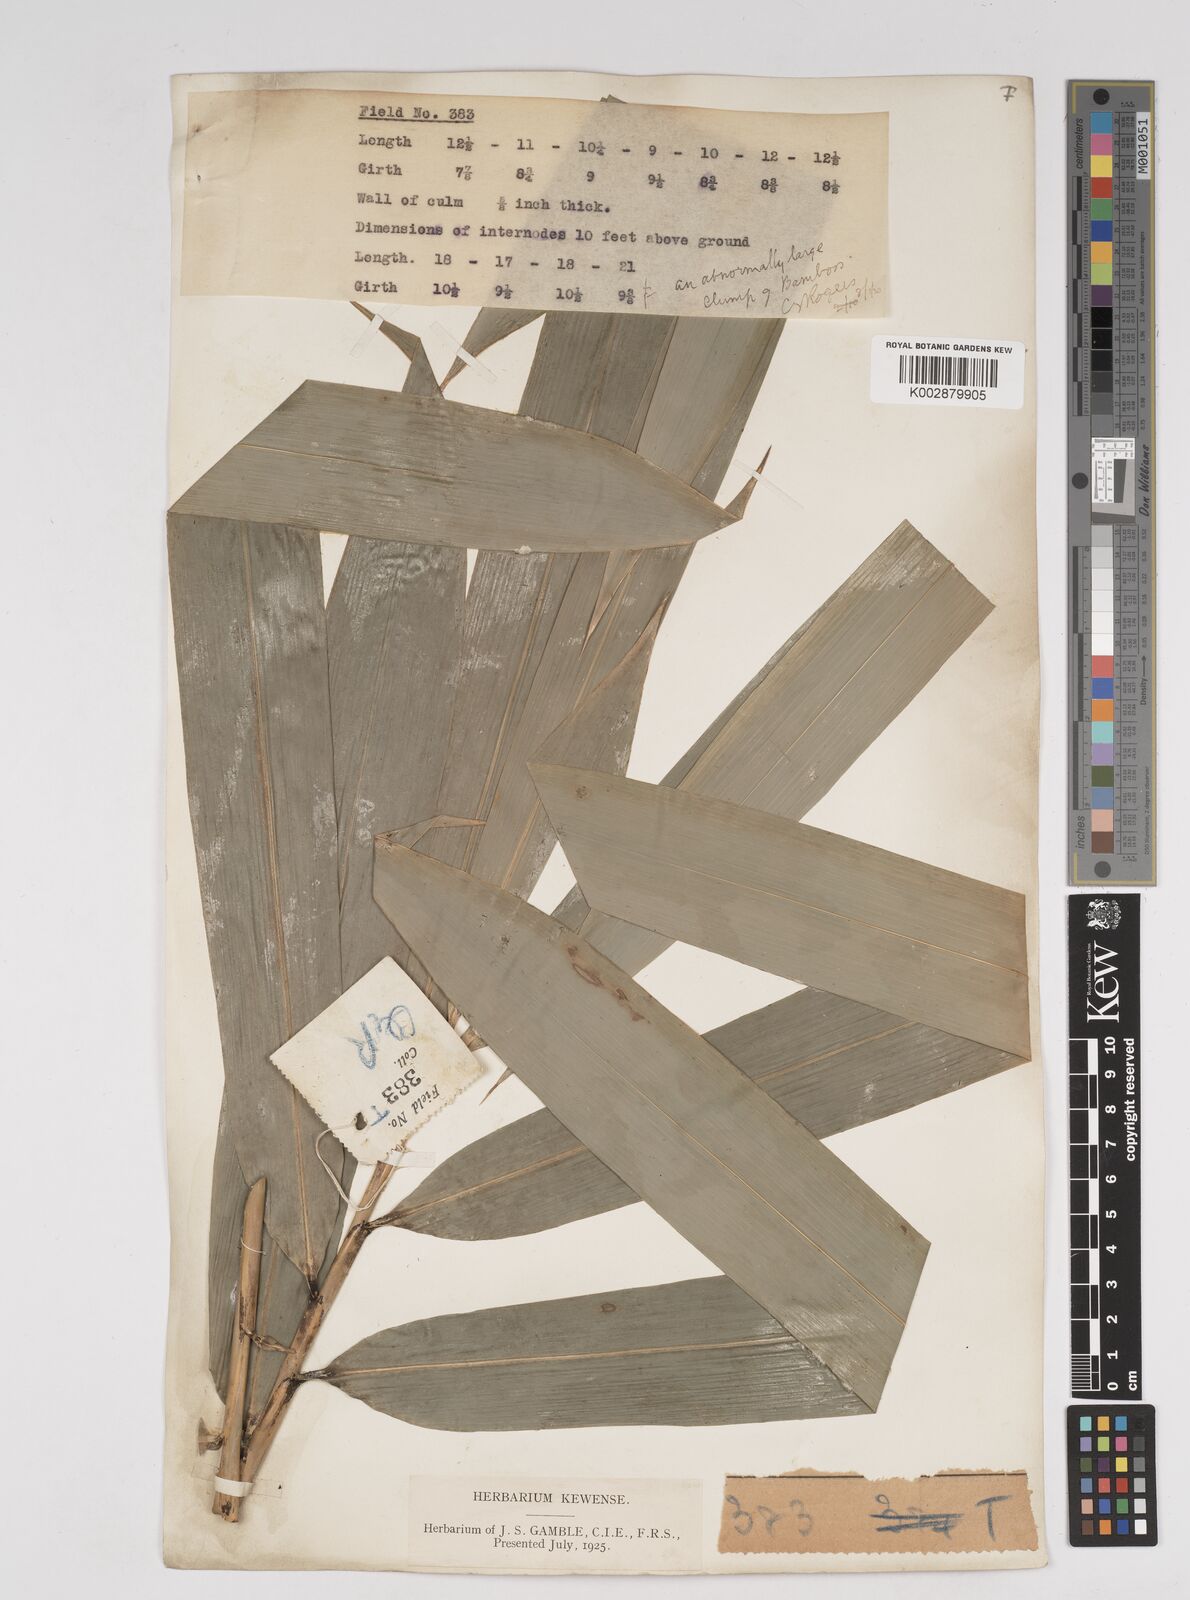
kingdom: Plantae
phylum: Tracheophyta
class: Liliopsida
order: Poales
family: Poaceae
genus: Gigantochloa
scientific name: Gigantochloa nigrociliata
